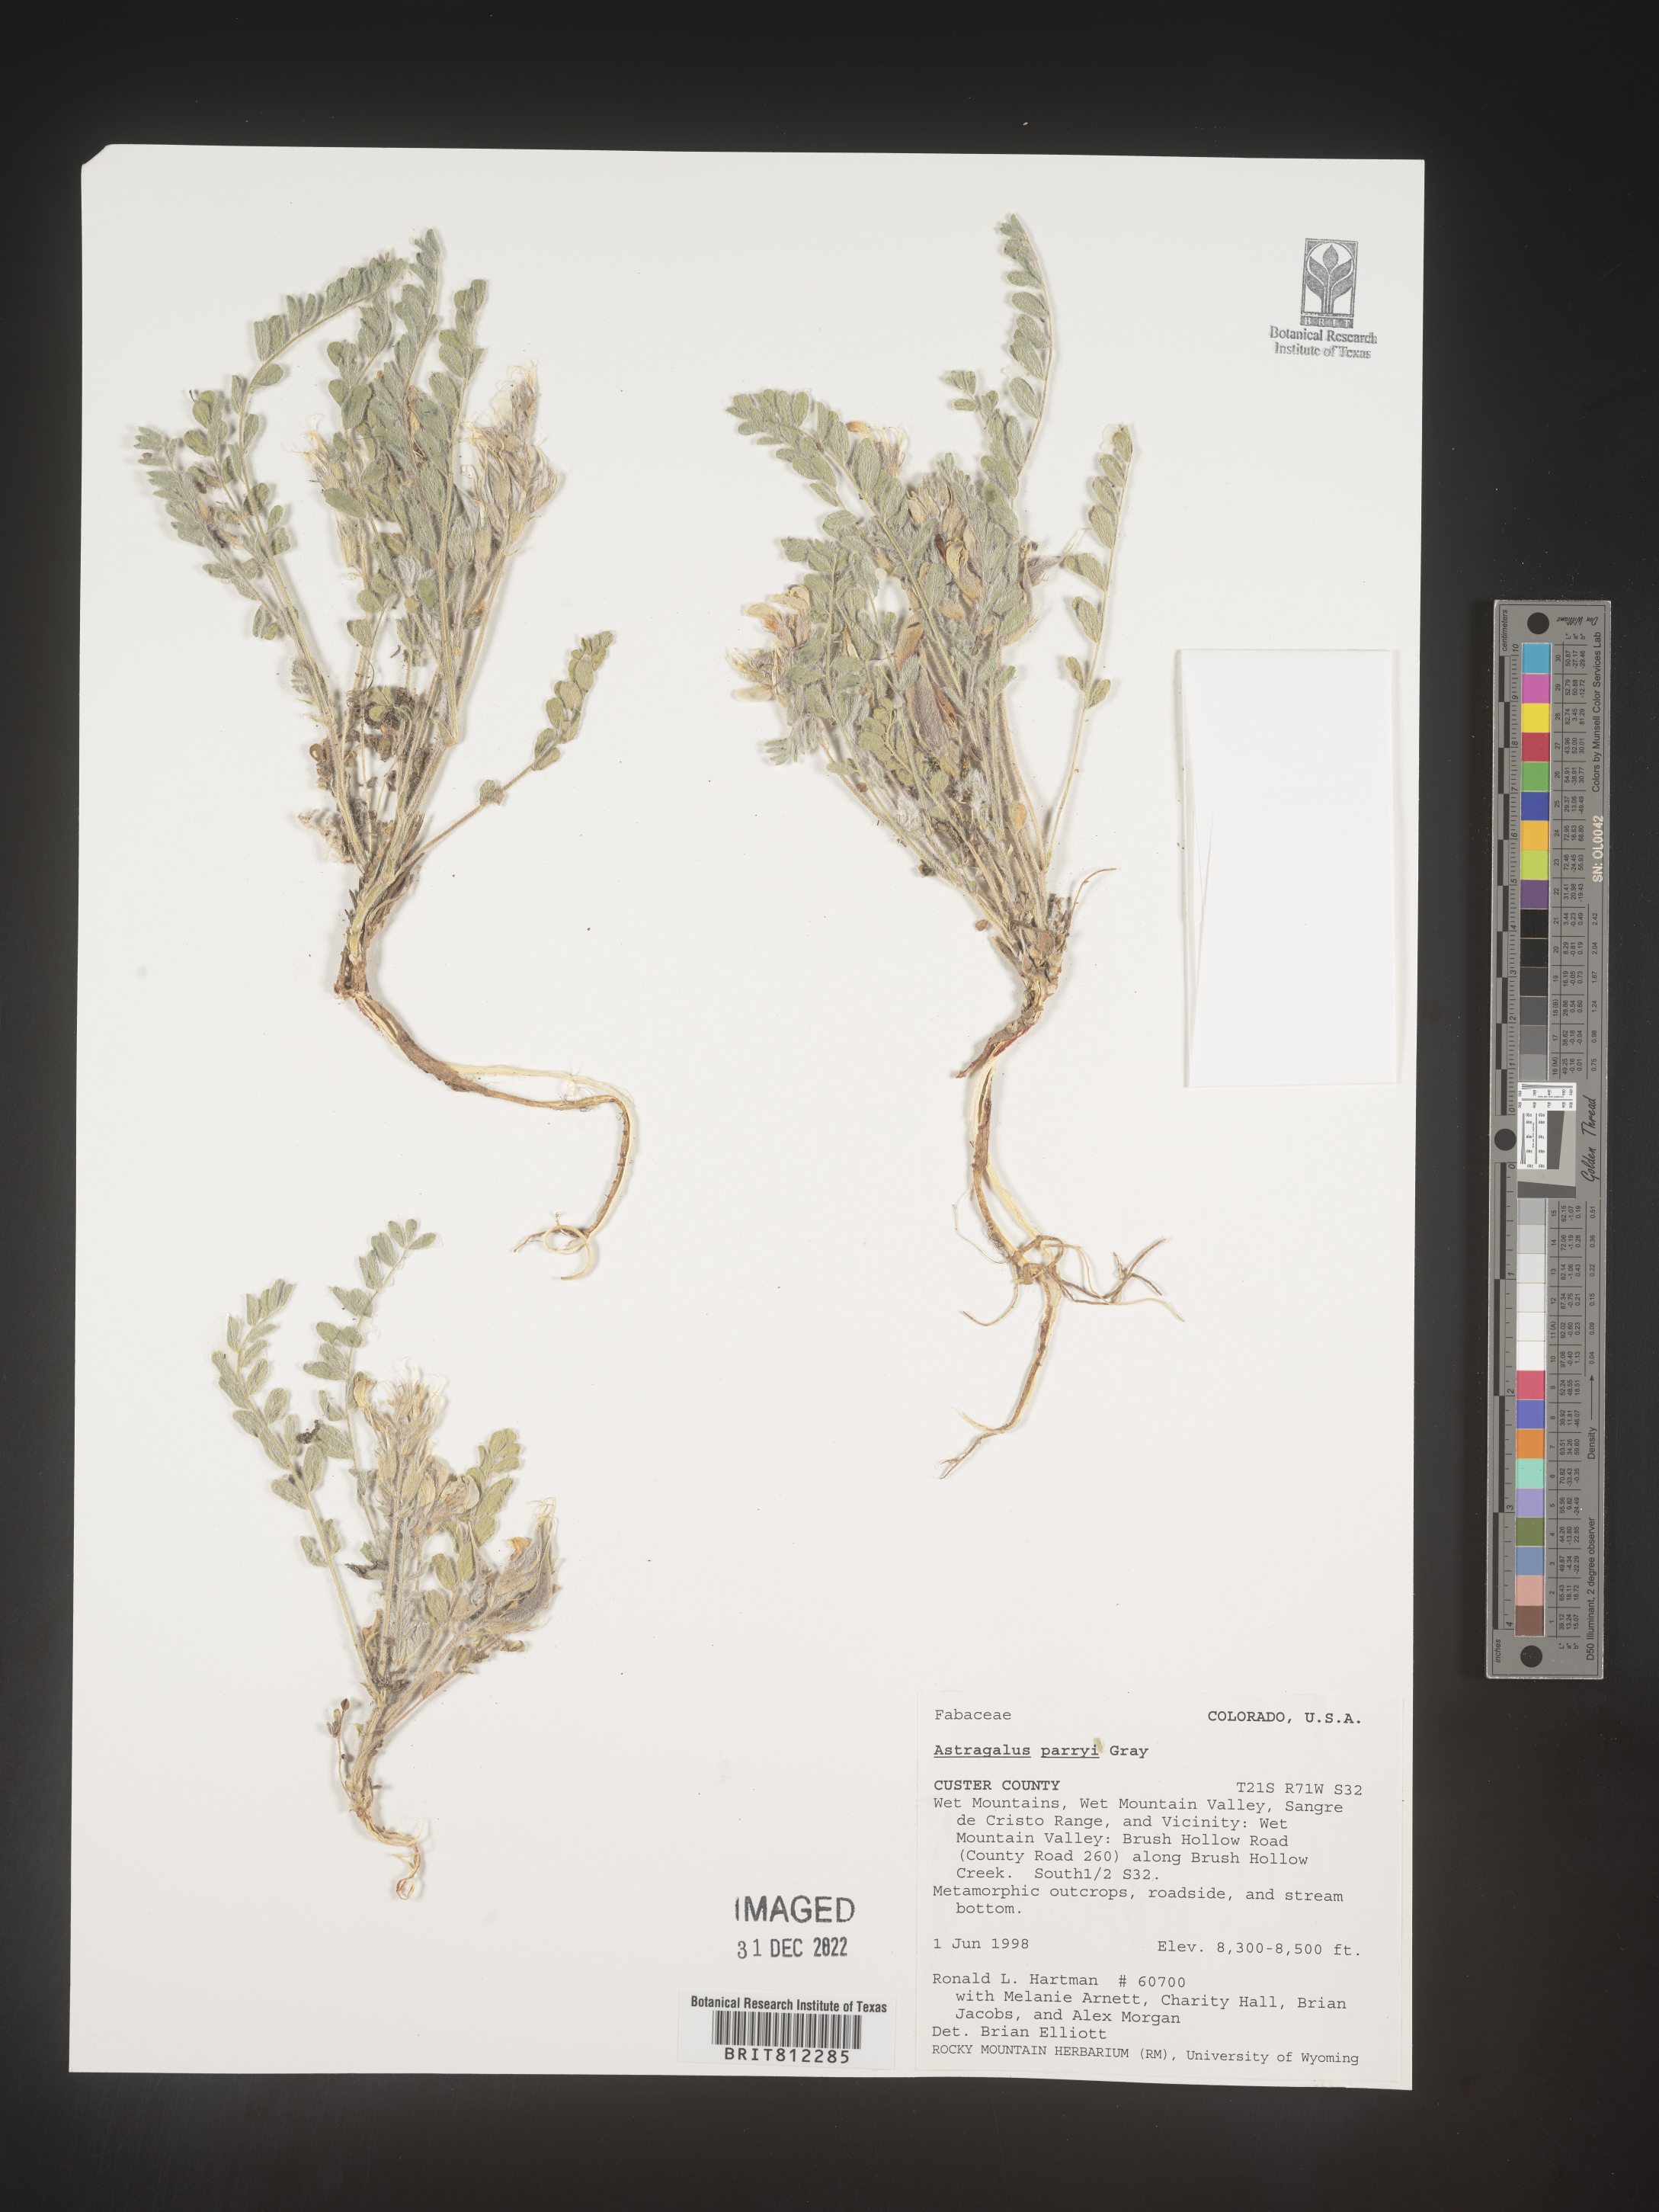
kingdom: Plantae
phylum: Tracheophyta
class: Magnoliopsida
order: Fabales
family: Fabaceae
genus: Astragalus
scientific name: Astragalus
